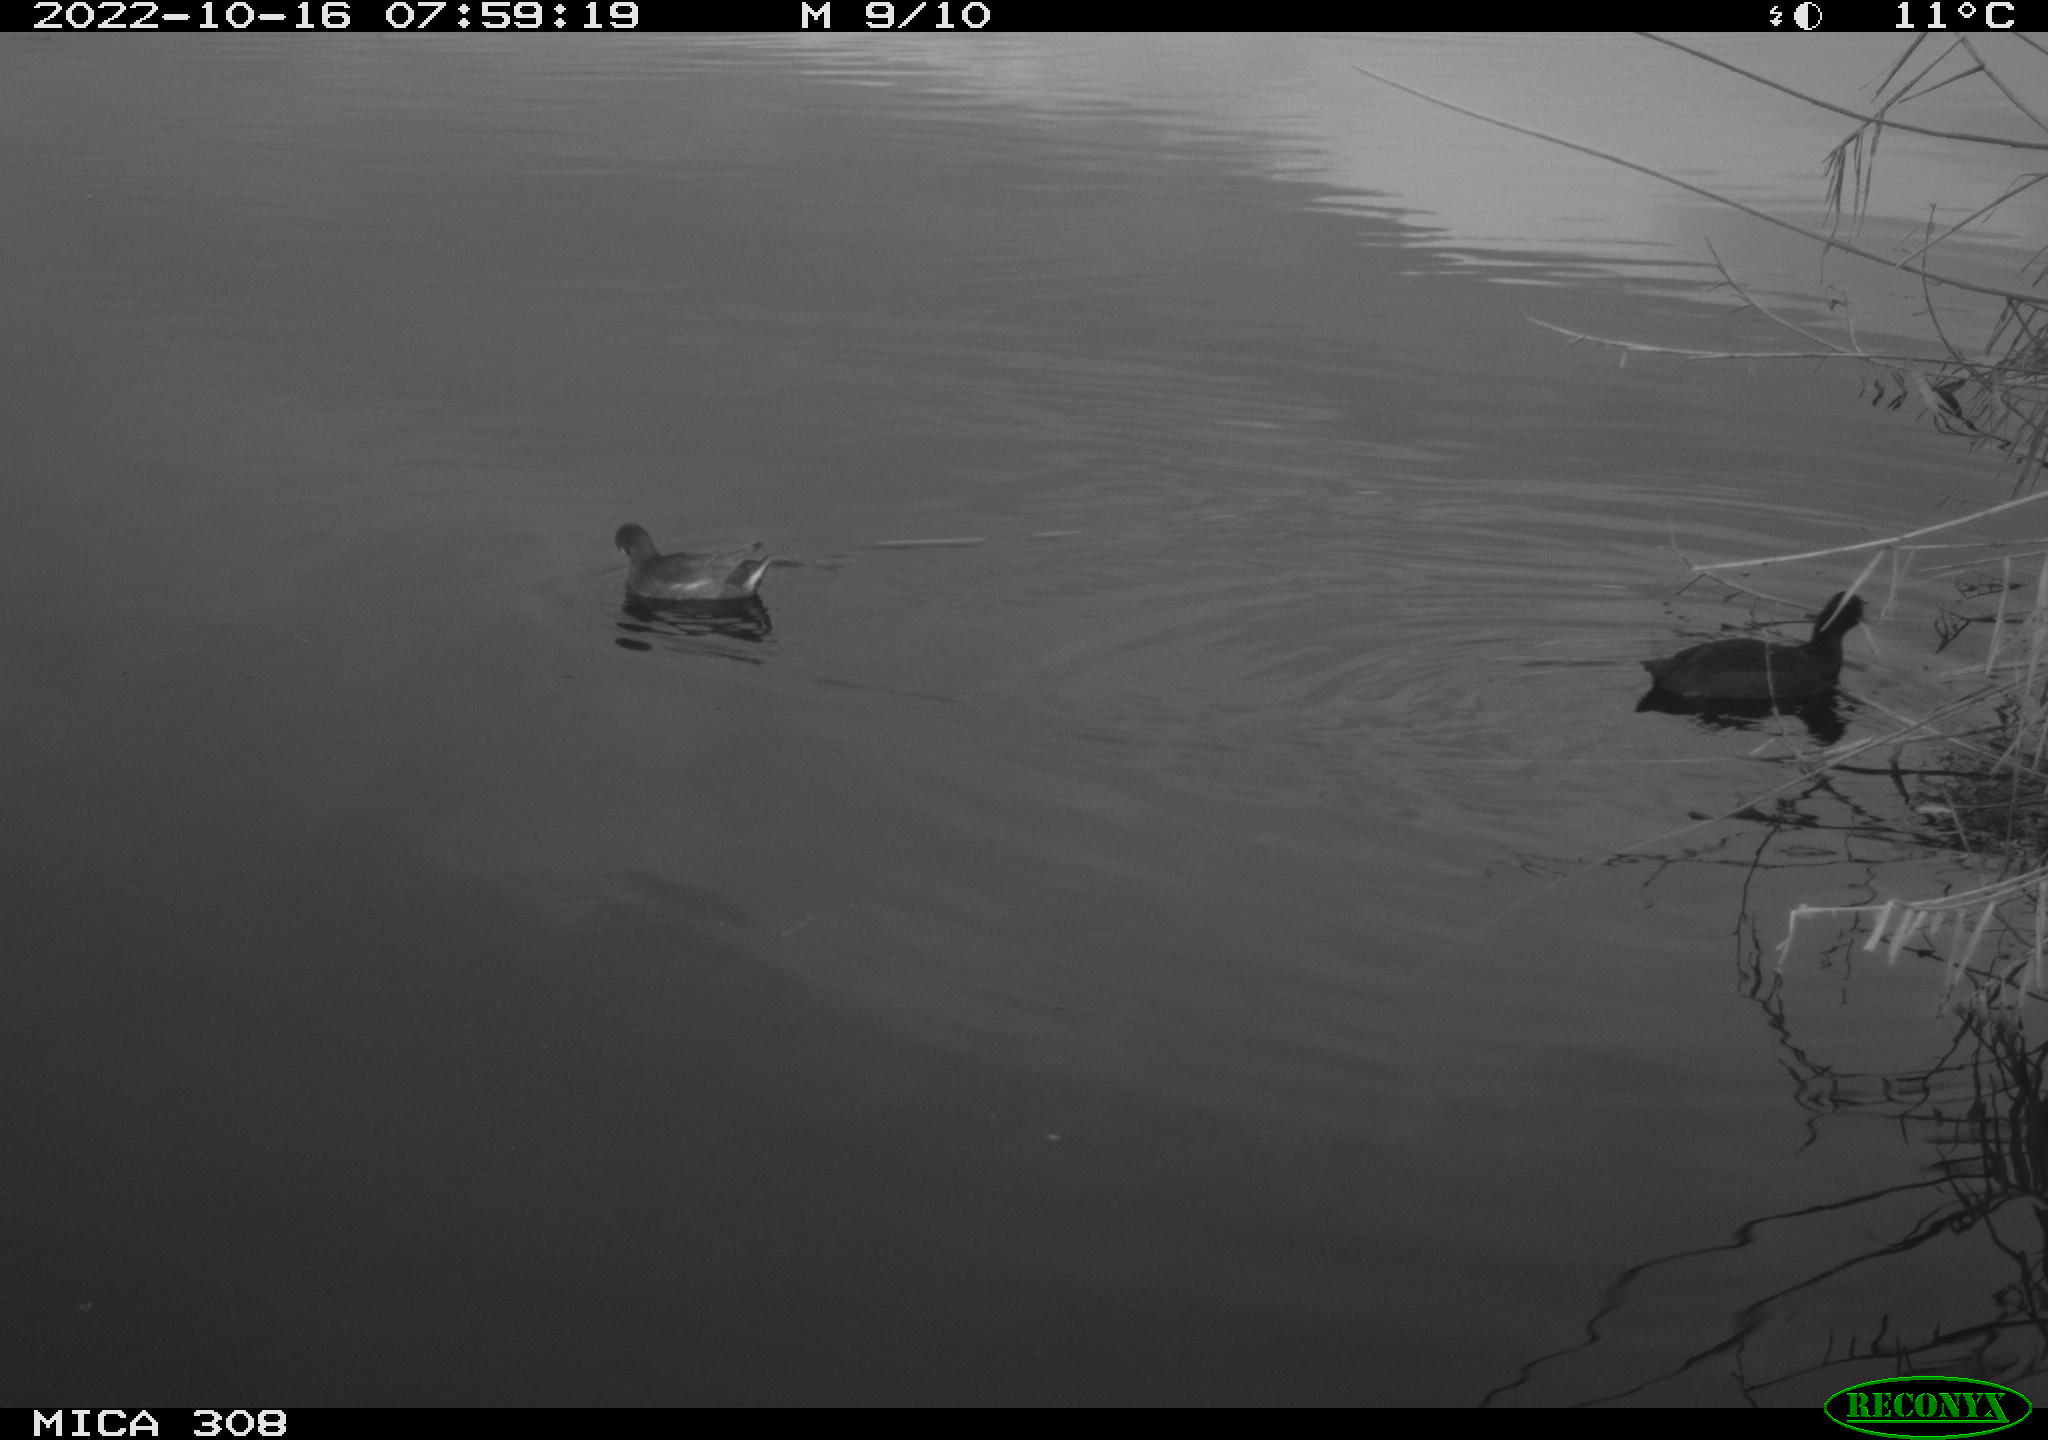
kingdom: Animalia
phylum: Chordata
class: Aves
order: Gruiformes
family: Rallidae
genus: Gallinula
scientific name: Gallinula chloropus
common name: Common moorhen
